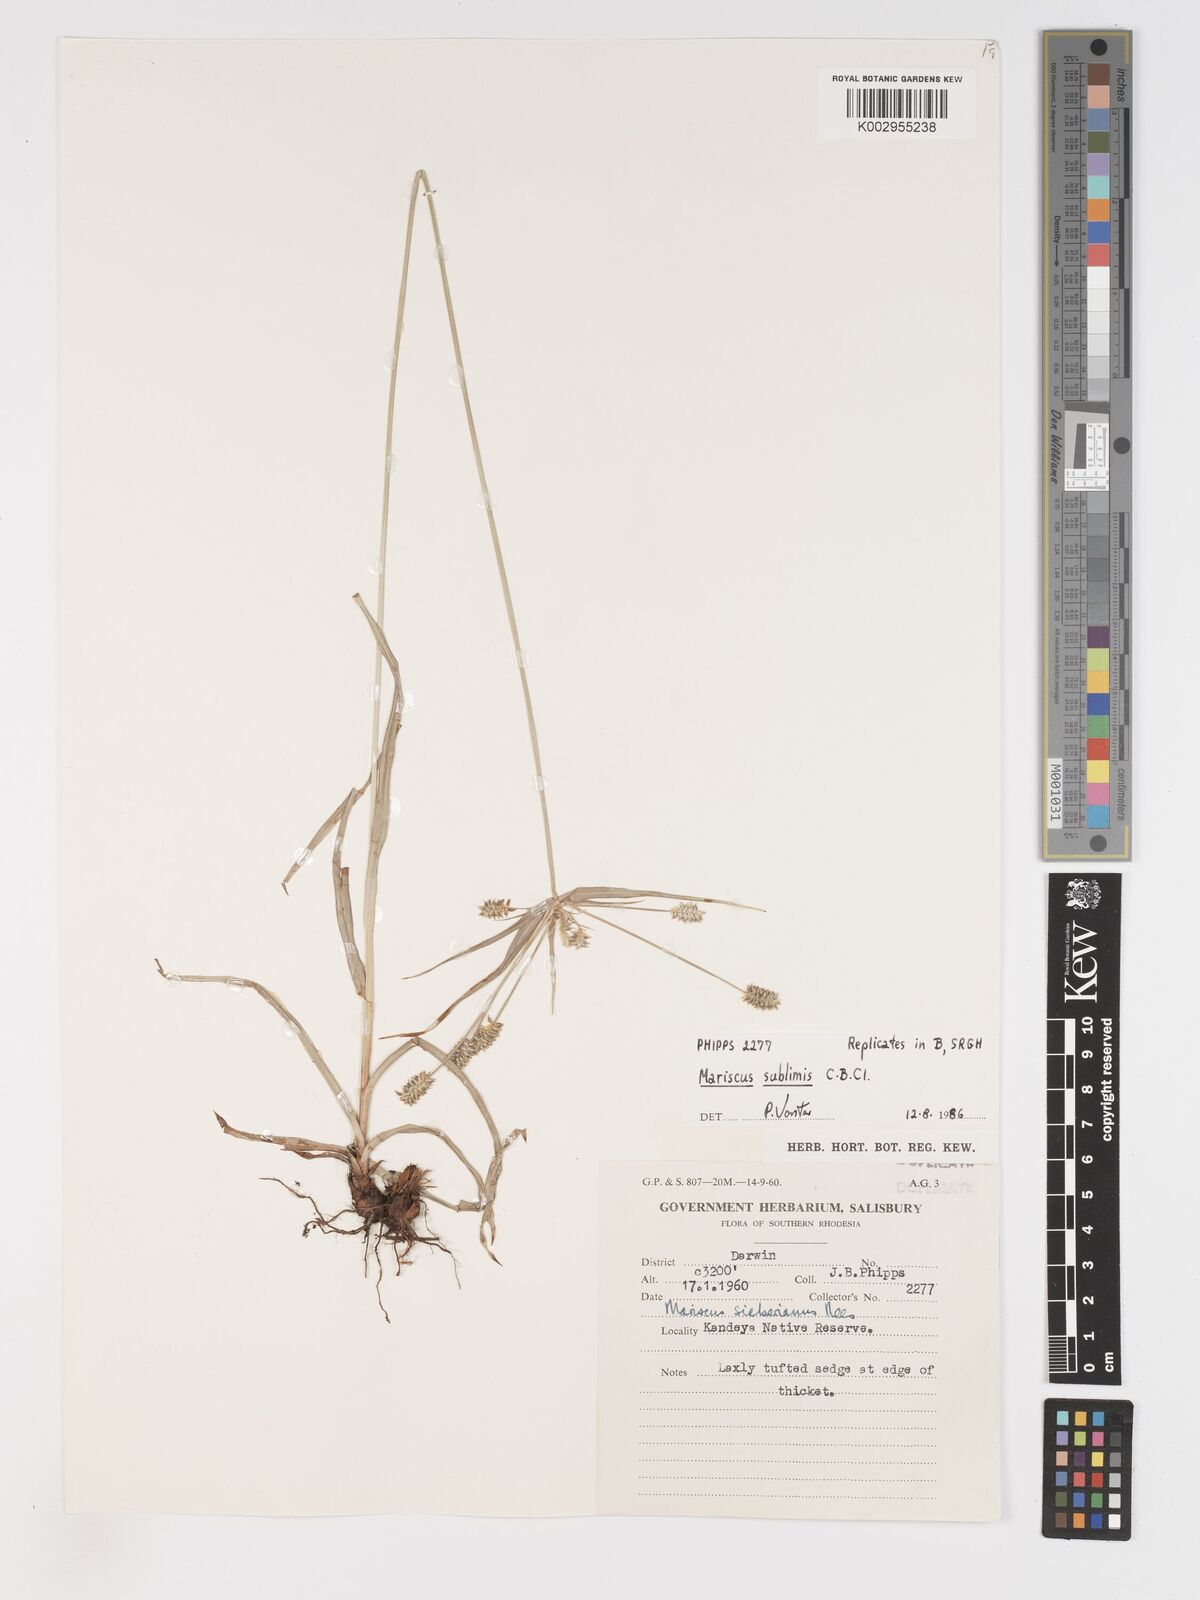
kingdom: Plantae
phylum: Tracheophyta
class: Liliopsida
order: Poales
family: Cyperaceae
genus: Cyperus
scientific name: Cyperus chersinus
